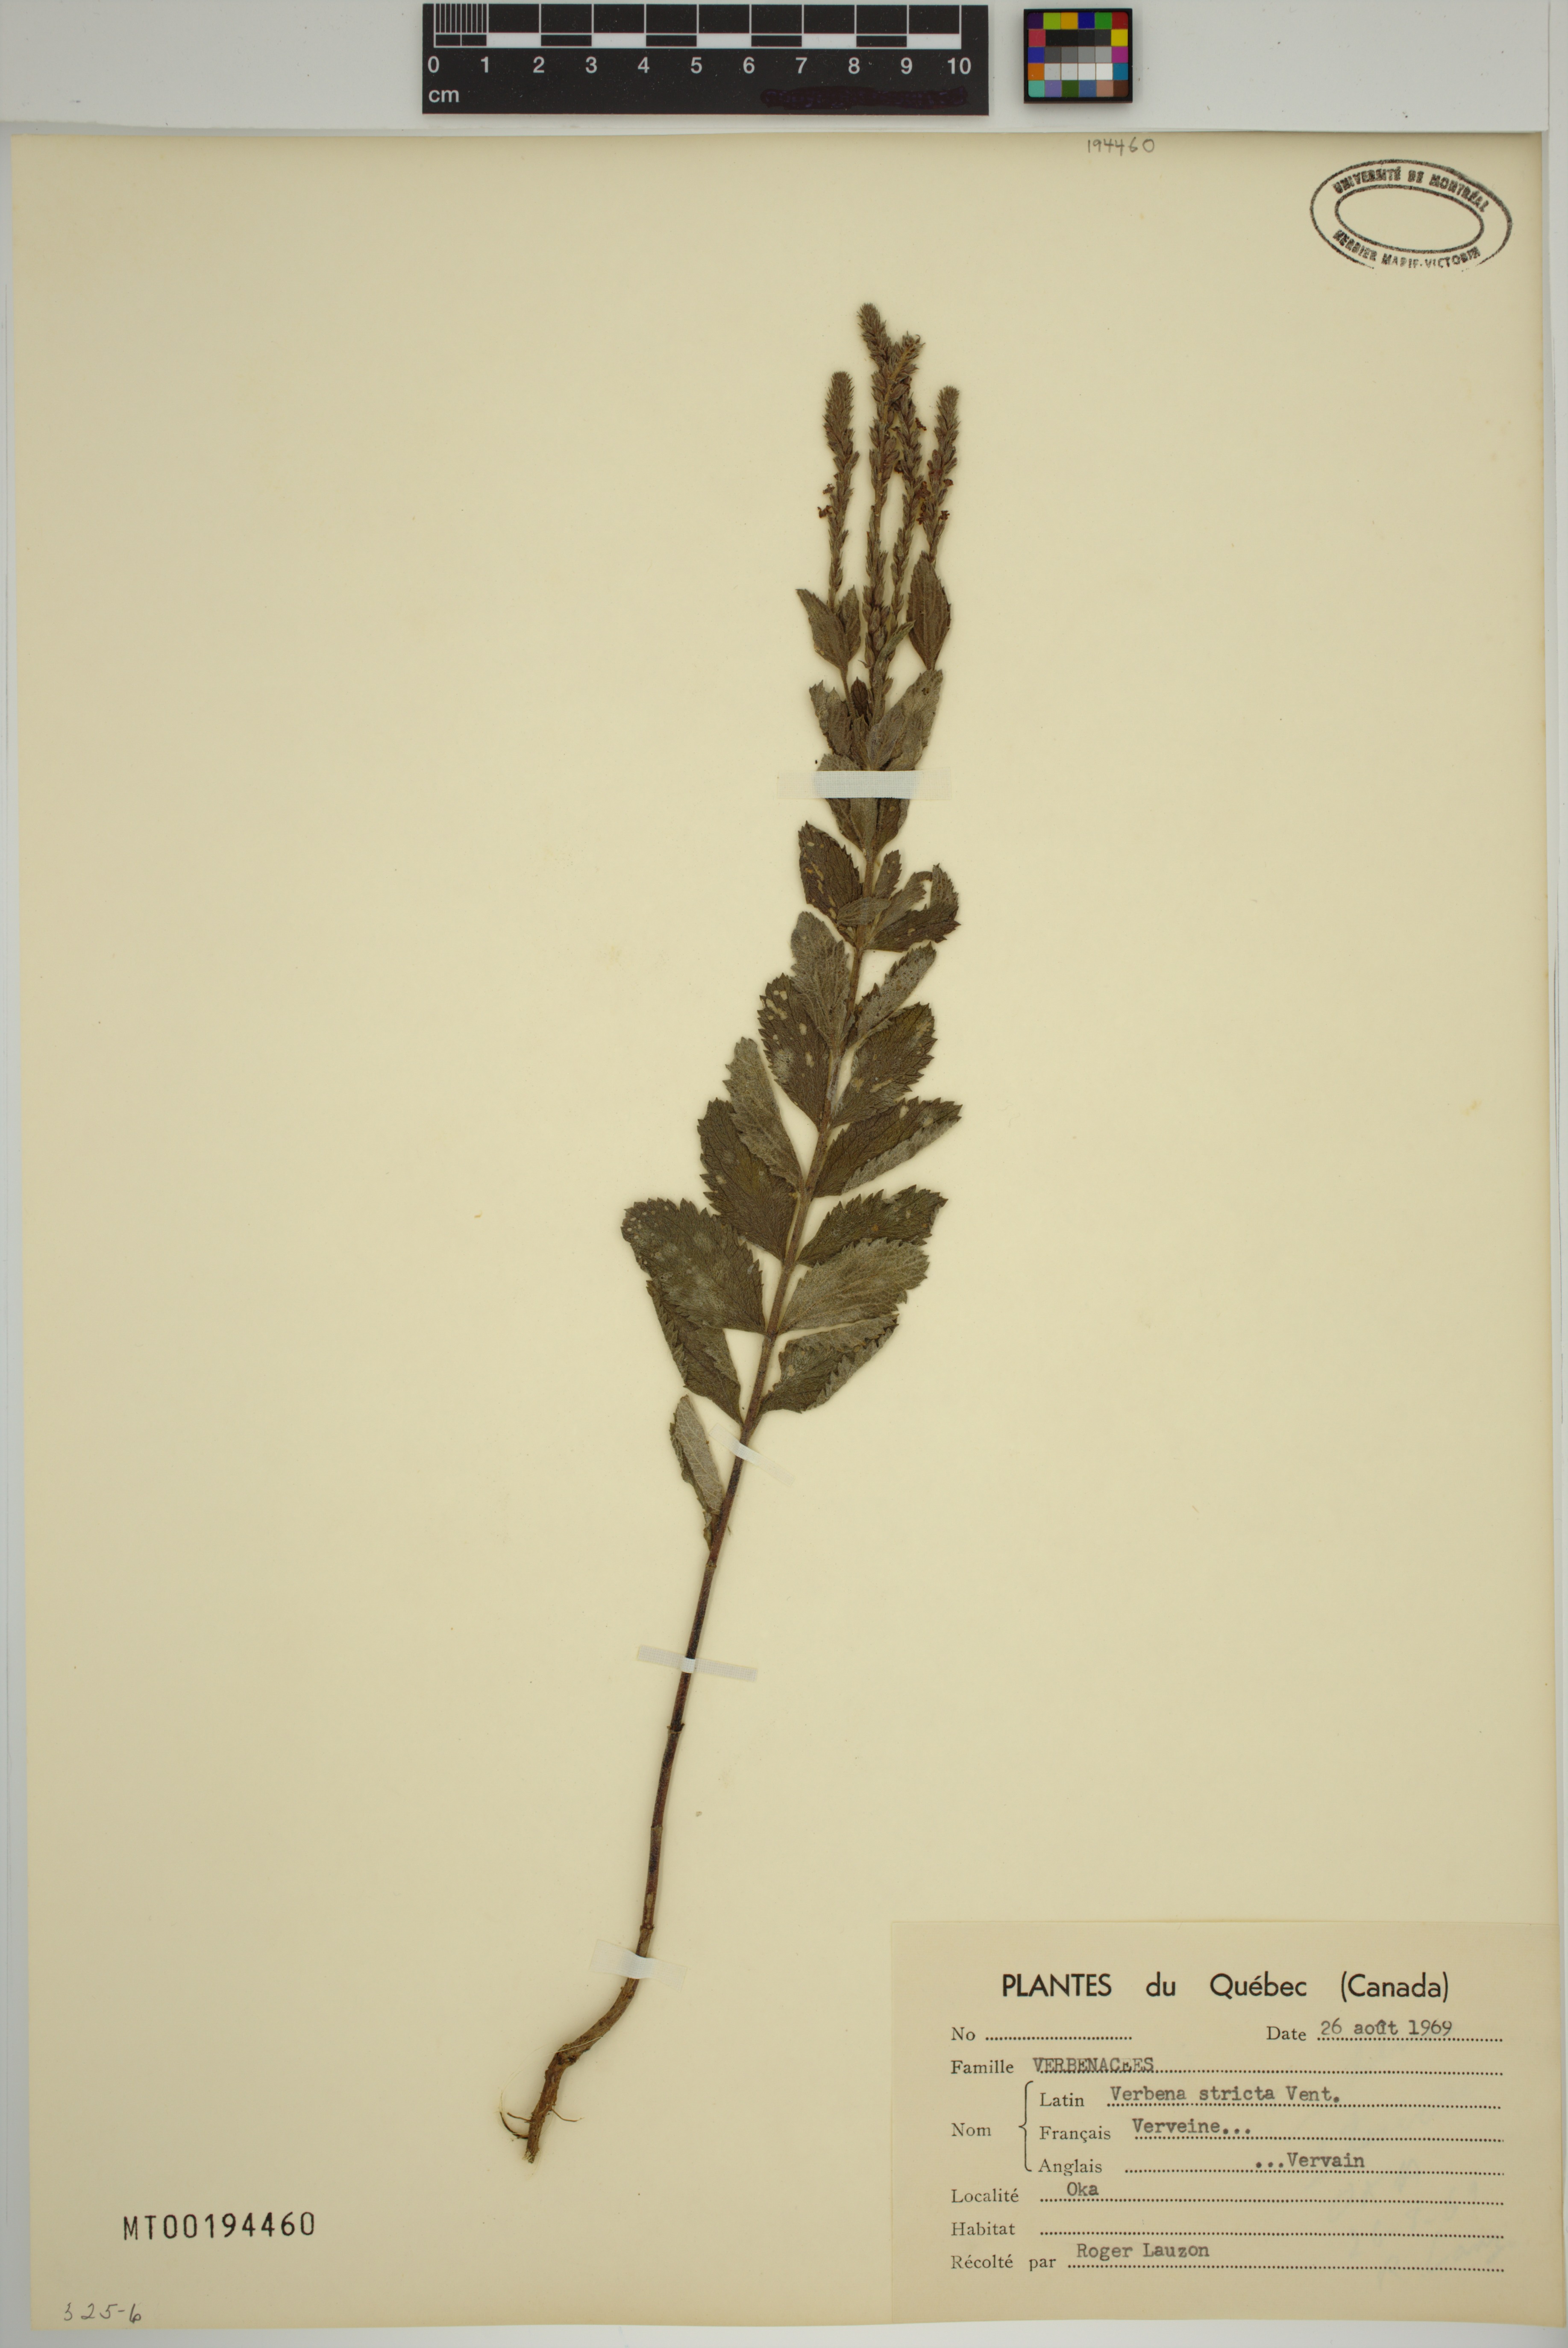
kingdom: Plantae
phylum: Tracheophyta
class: Magnoliopsida
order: Lamiales
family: Verbenaceae
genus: Verbena
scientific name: Verbena stricta
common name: Hoary vervain
